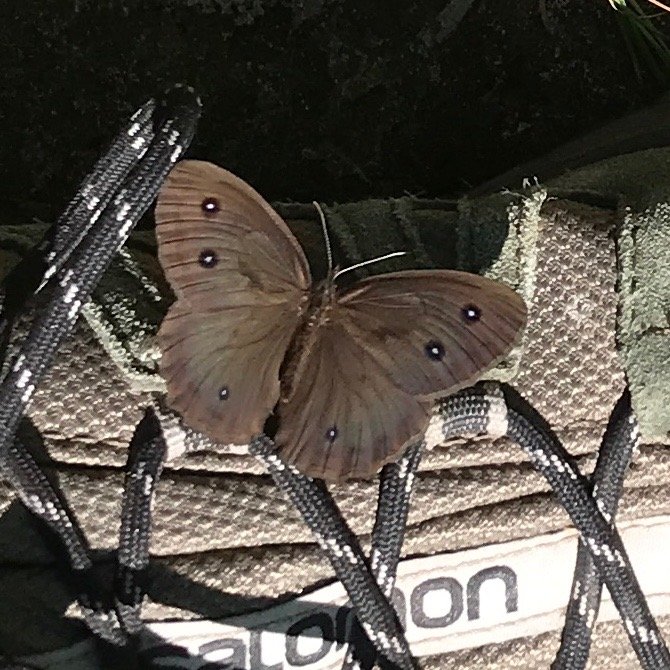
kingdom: Animalia
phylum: Arthropoda
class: Insecta
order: Lepidoptera
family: Nymphalidae
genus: Cercyonis
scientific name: Cercyonis pegala
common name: Common Wood-Nymph
